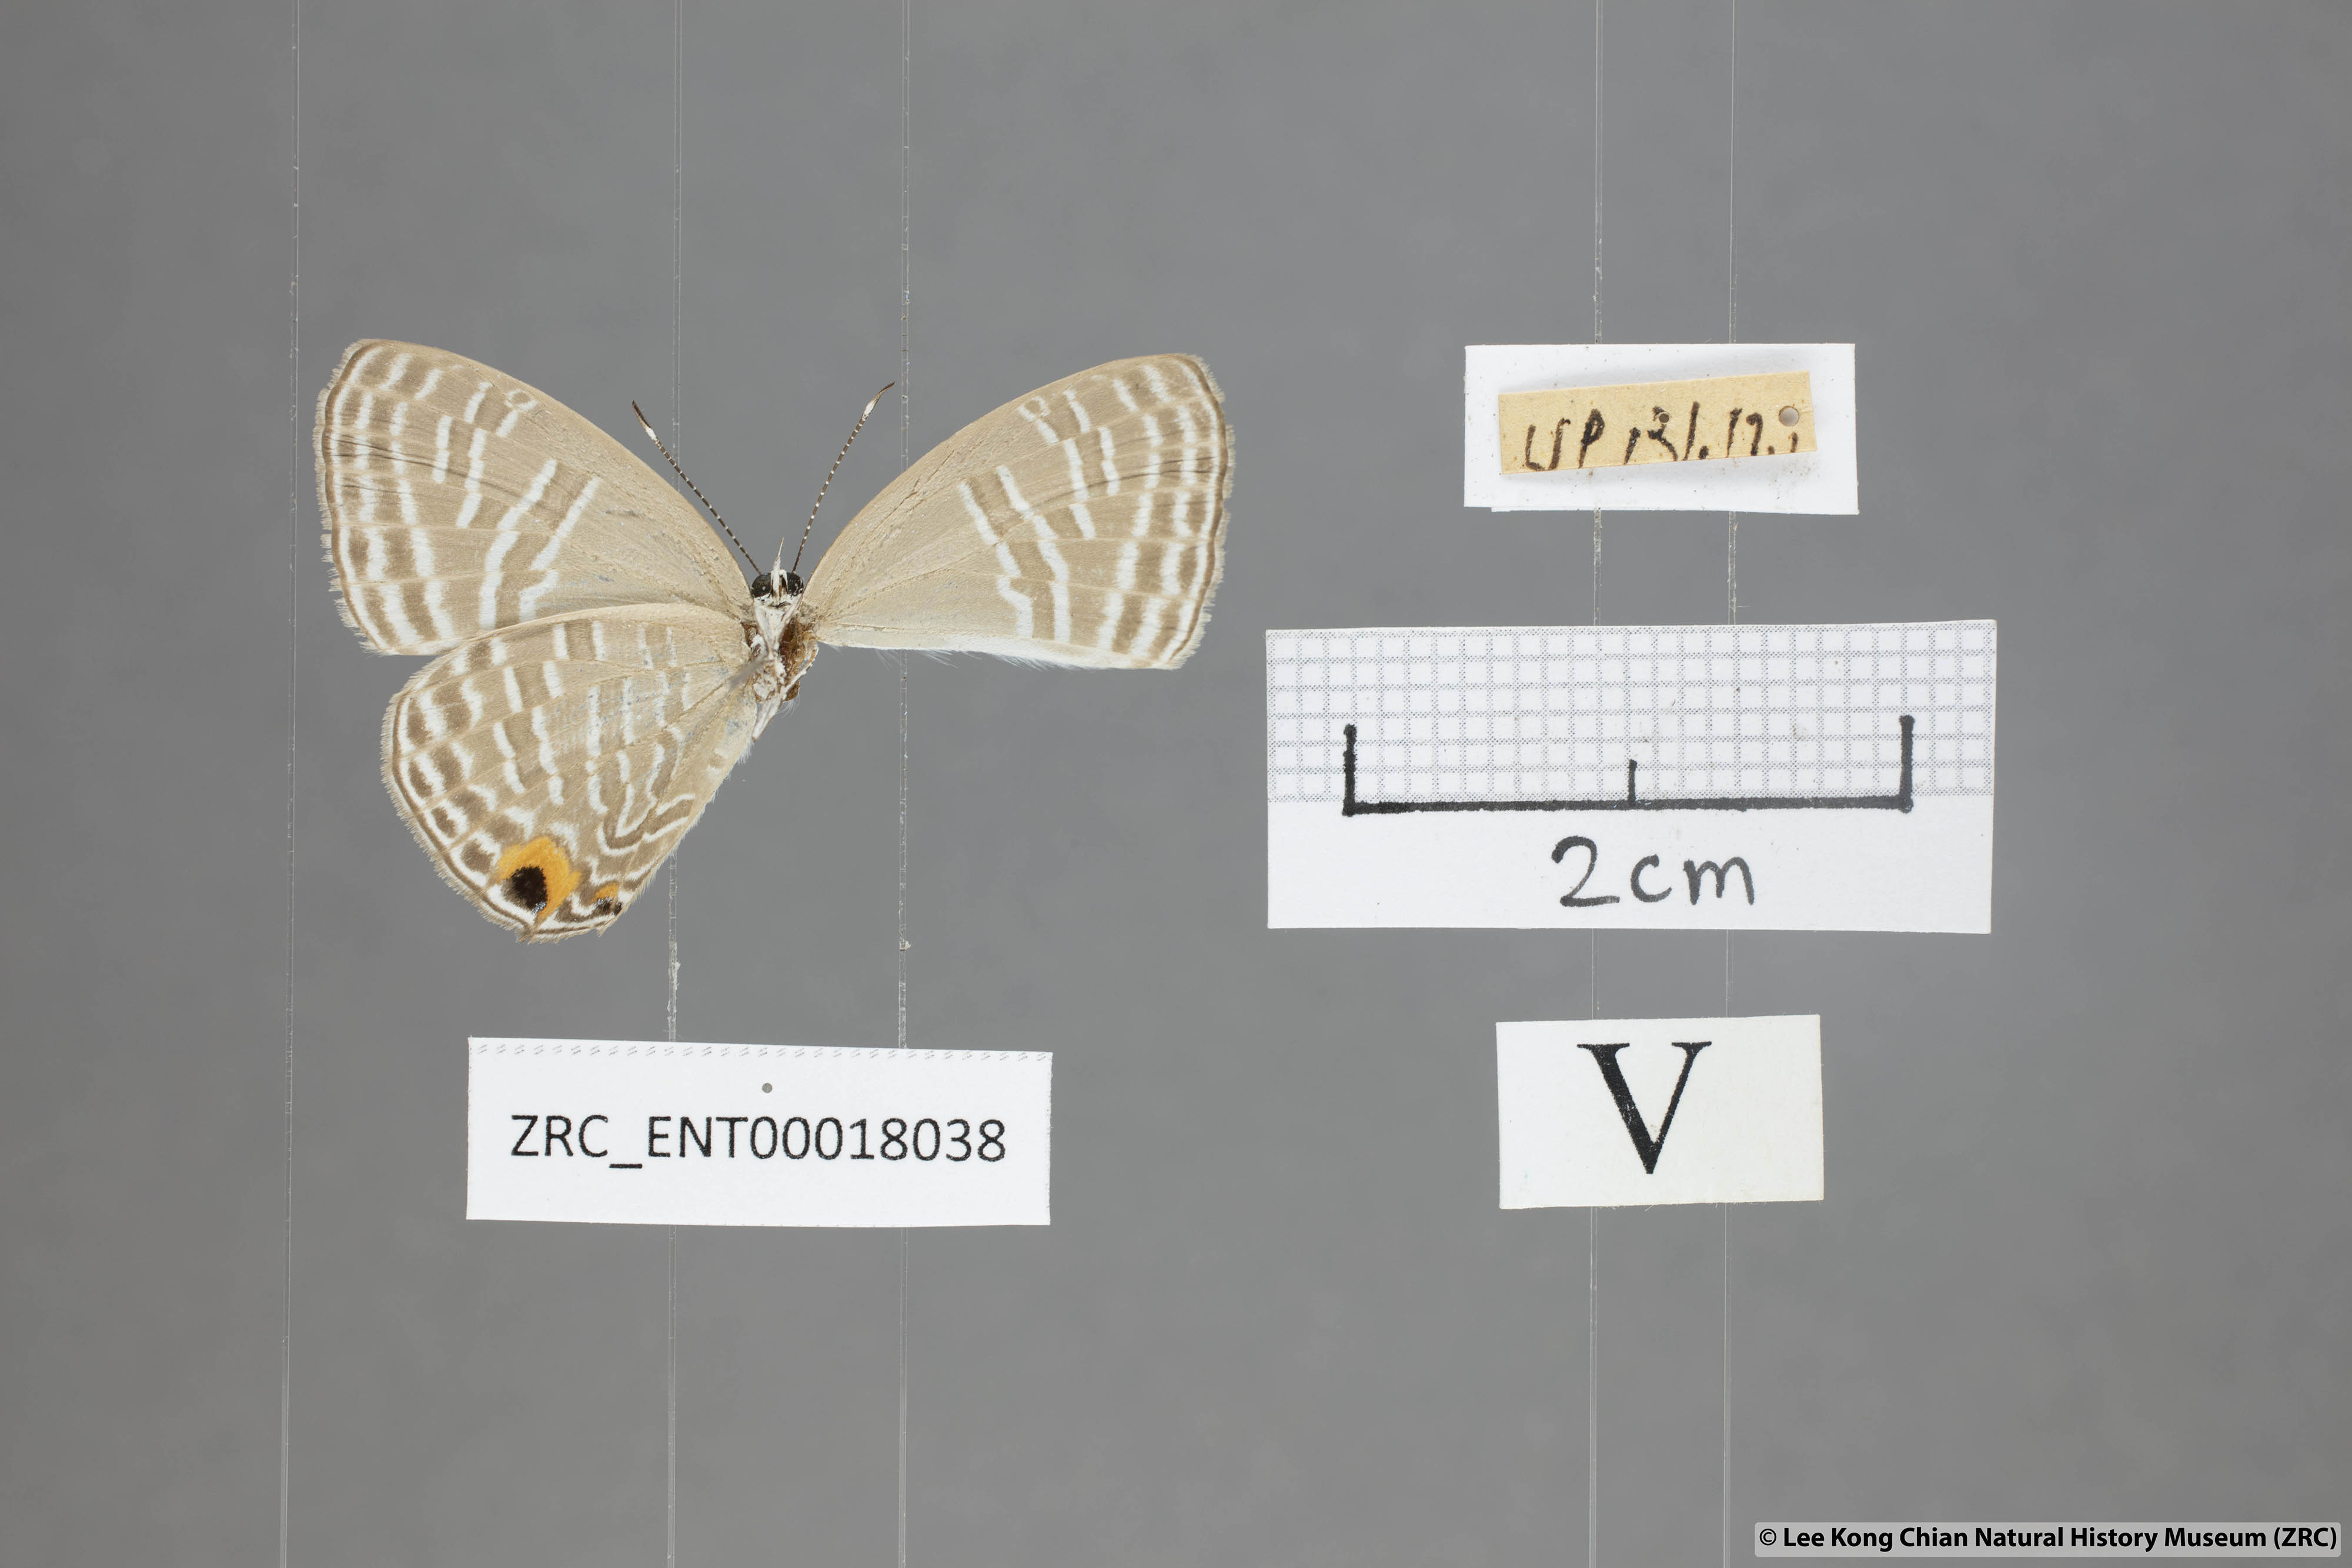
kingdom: Animalia
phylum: Arthropoda
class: Insecta
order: Lepidoptera
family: Lycaenidae
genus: Jamides
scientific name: Jamides alecto
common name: Metallic cerulean
